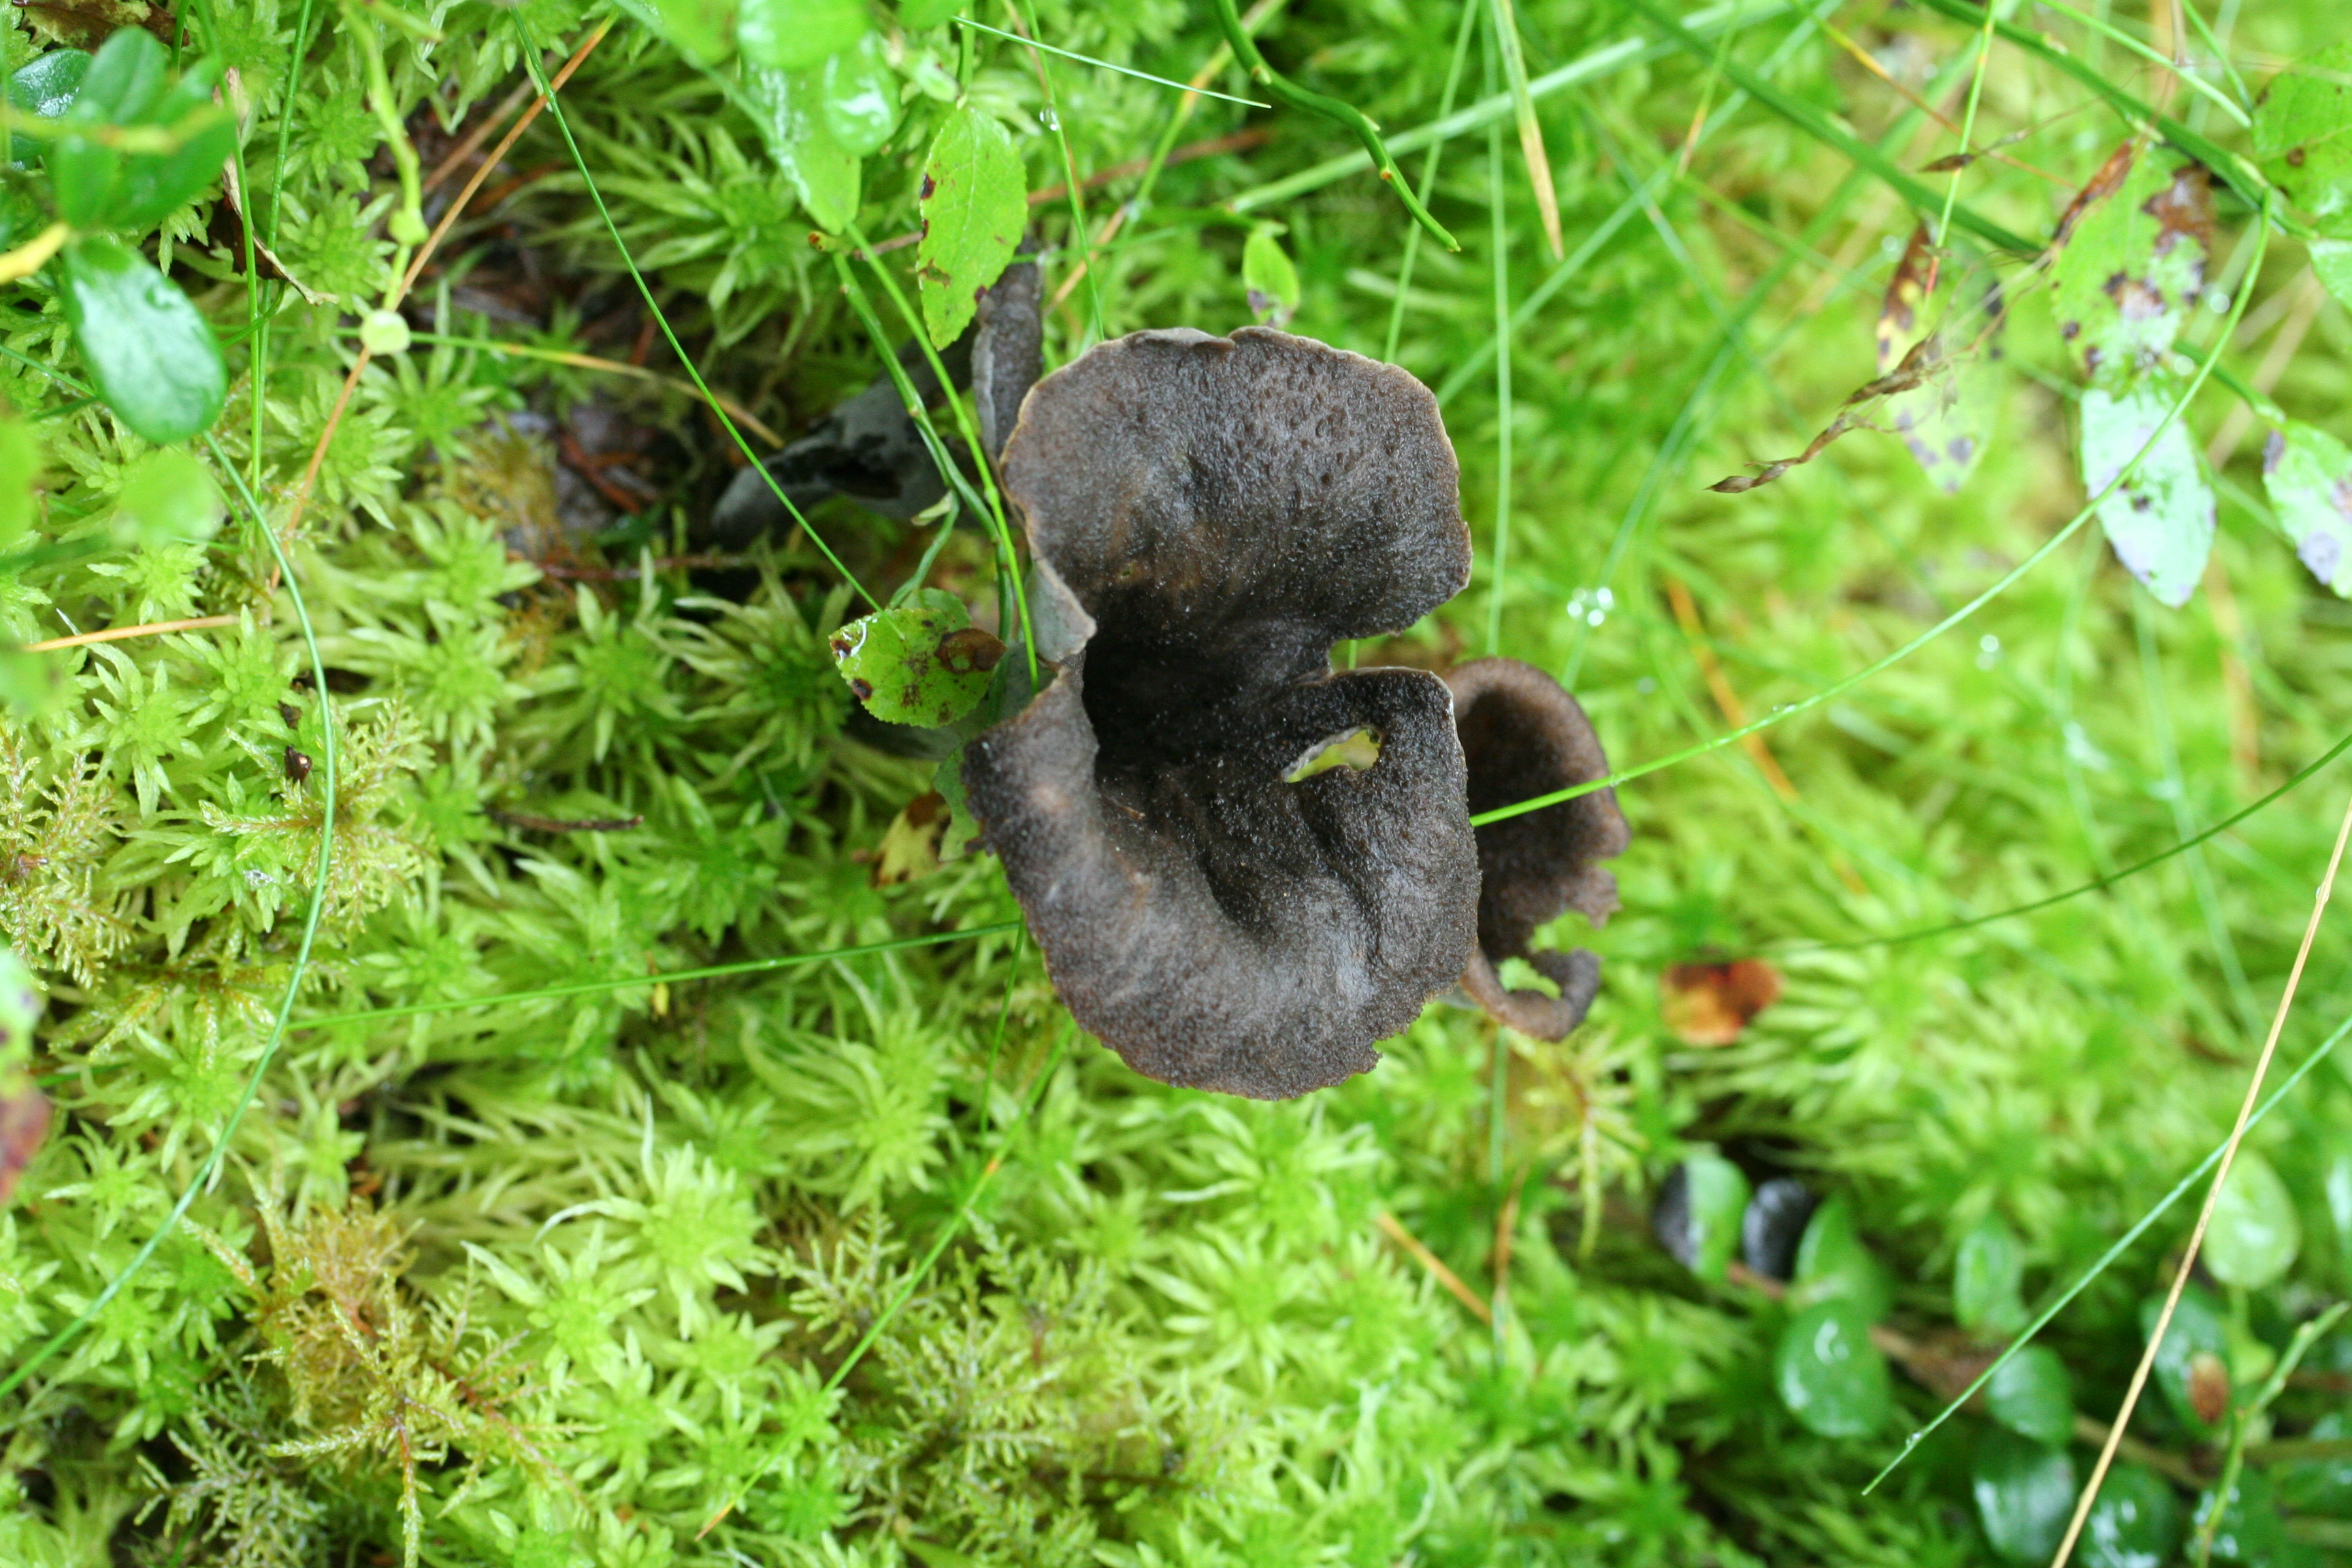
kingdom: Fungi
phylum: Basidiomycota
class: Agaricomycetes
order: Cantharellales
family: Hydnaceae
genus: Craterellus
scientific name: Craterellus cornucopioides
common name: Horn of plenty
